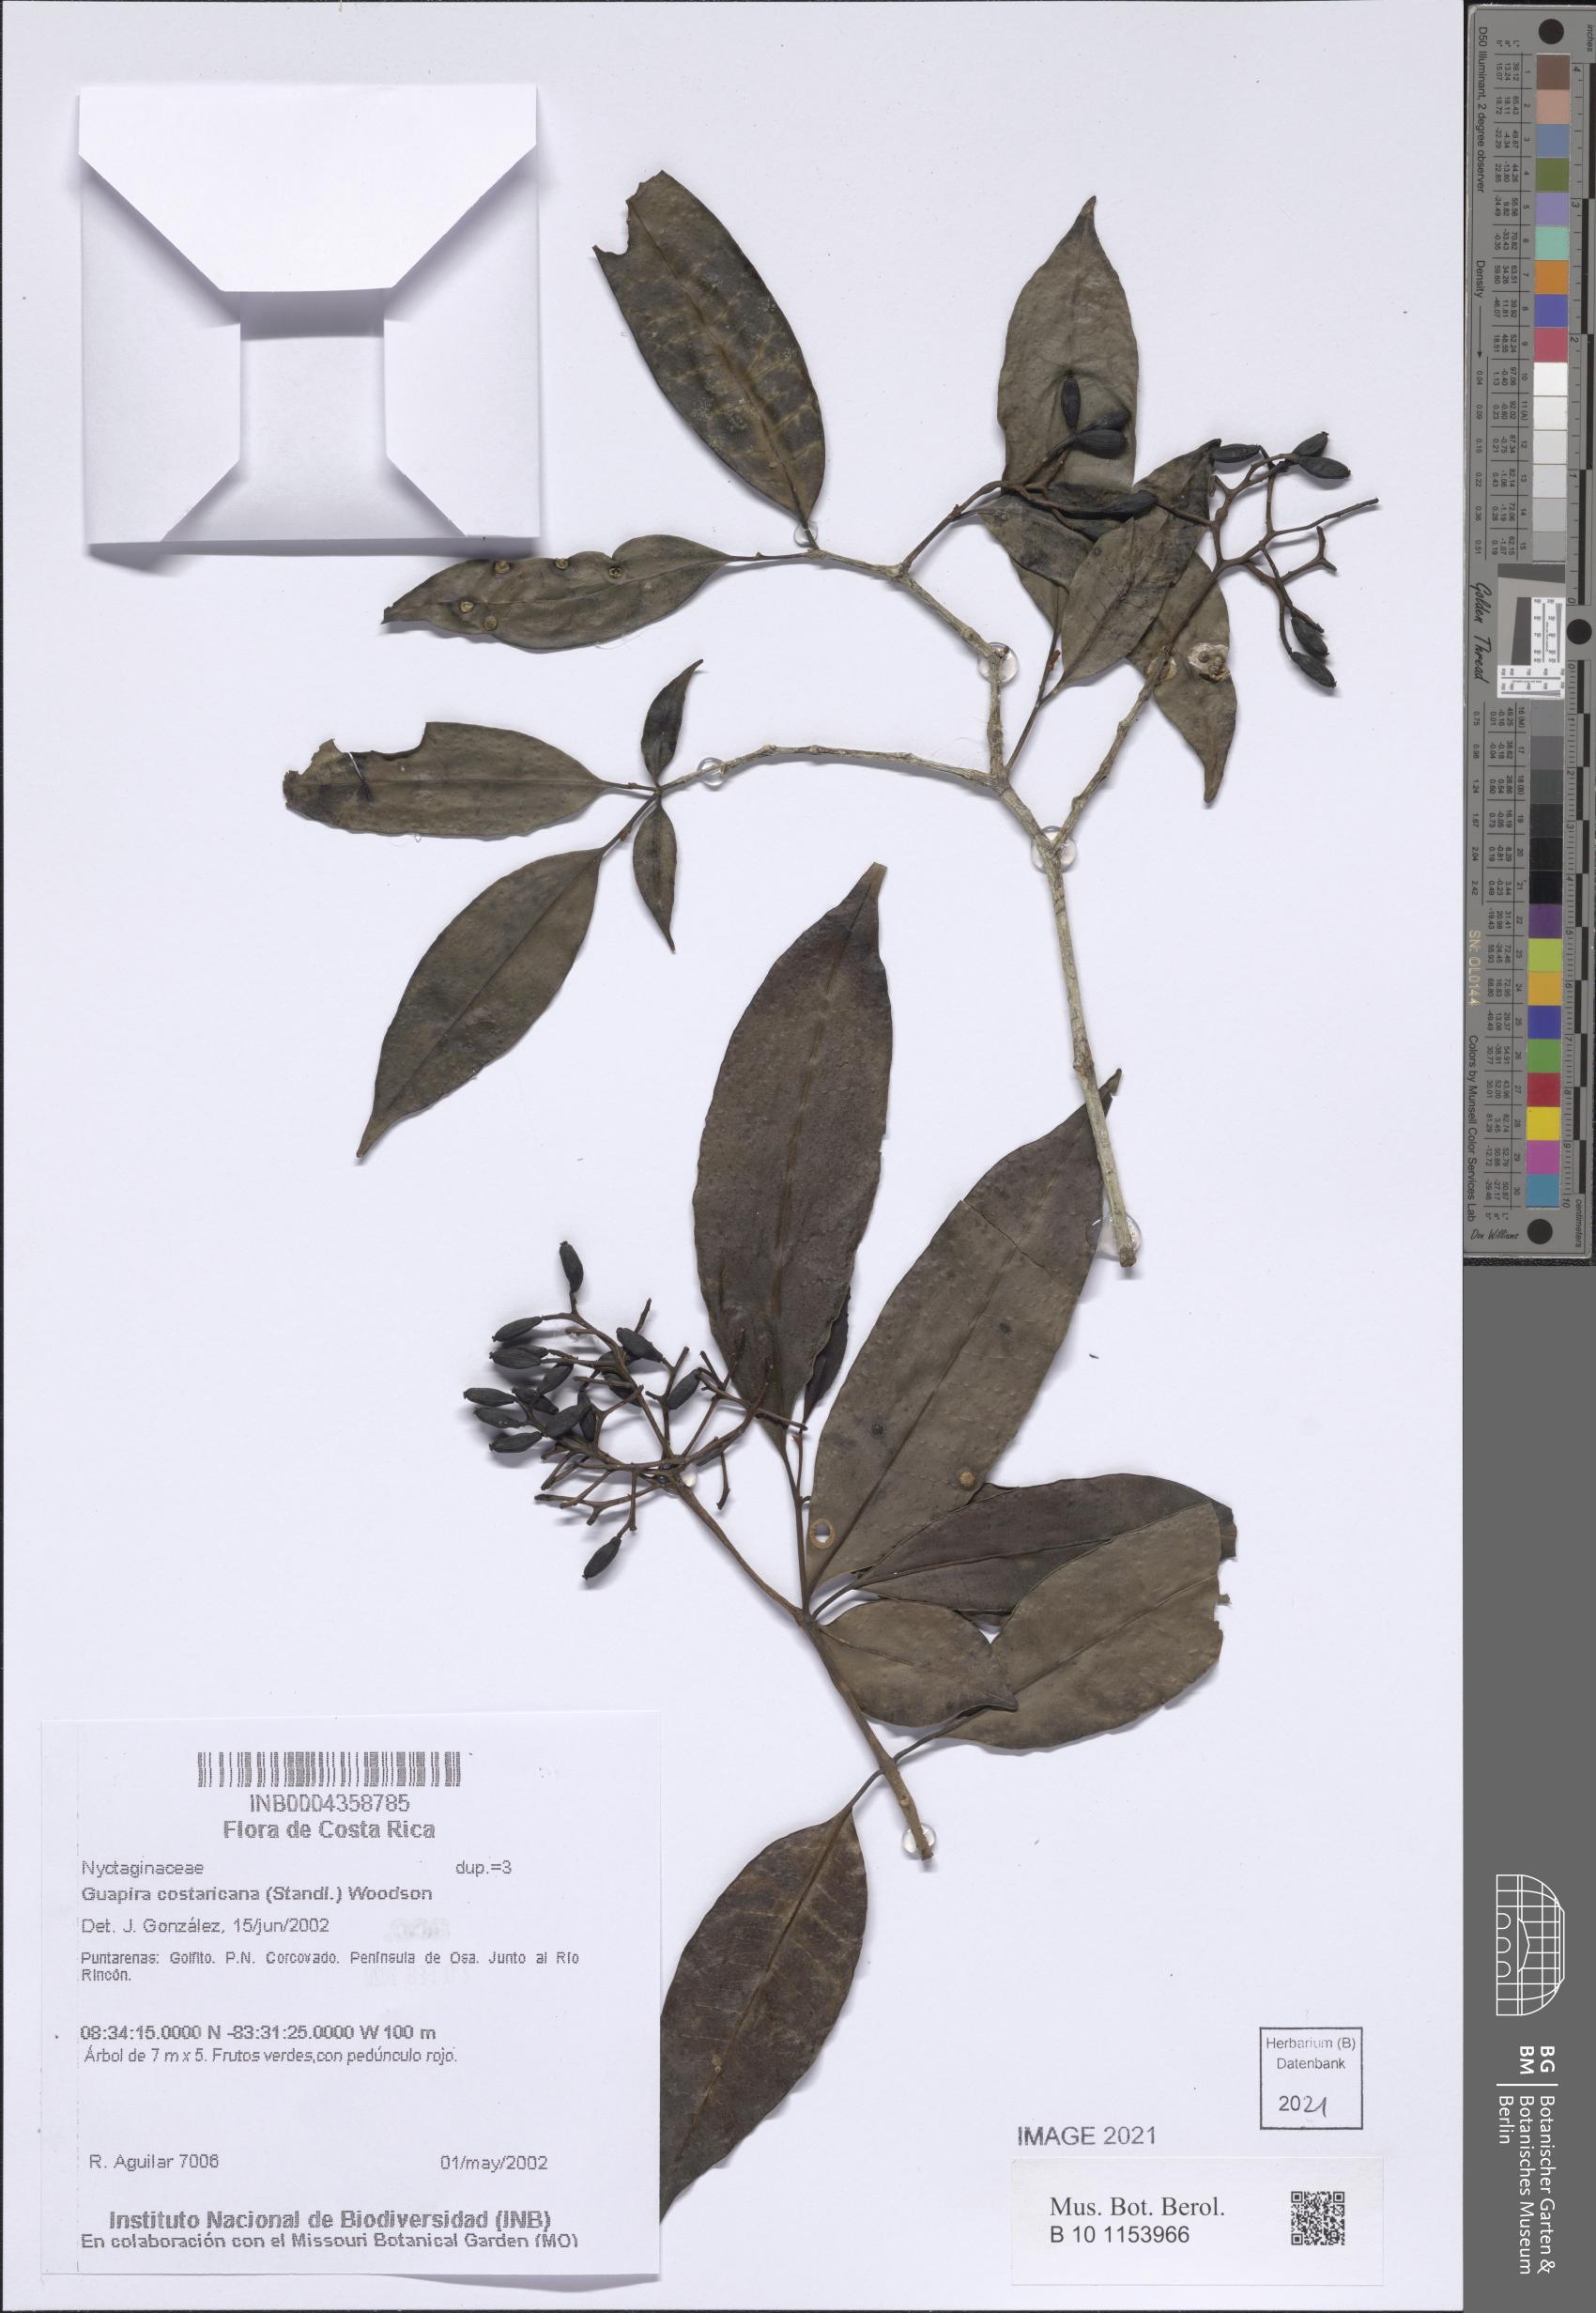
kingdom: Plantae
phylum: Tracheophyta
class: Magnoliopsida
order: Caryophyllales
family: Nyctaginaceae
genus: Guapira
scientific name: Guapira costaricana
